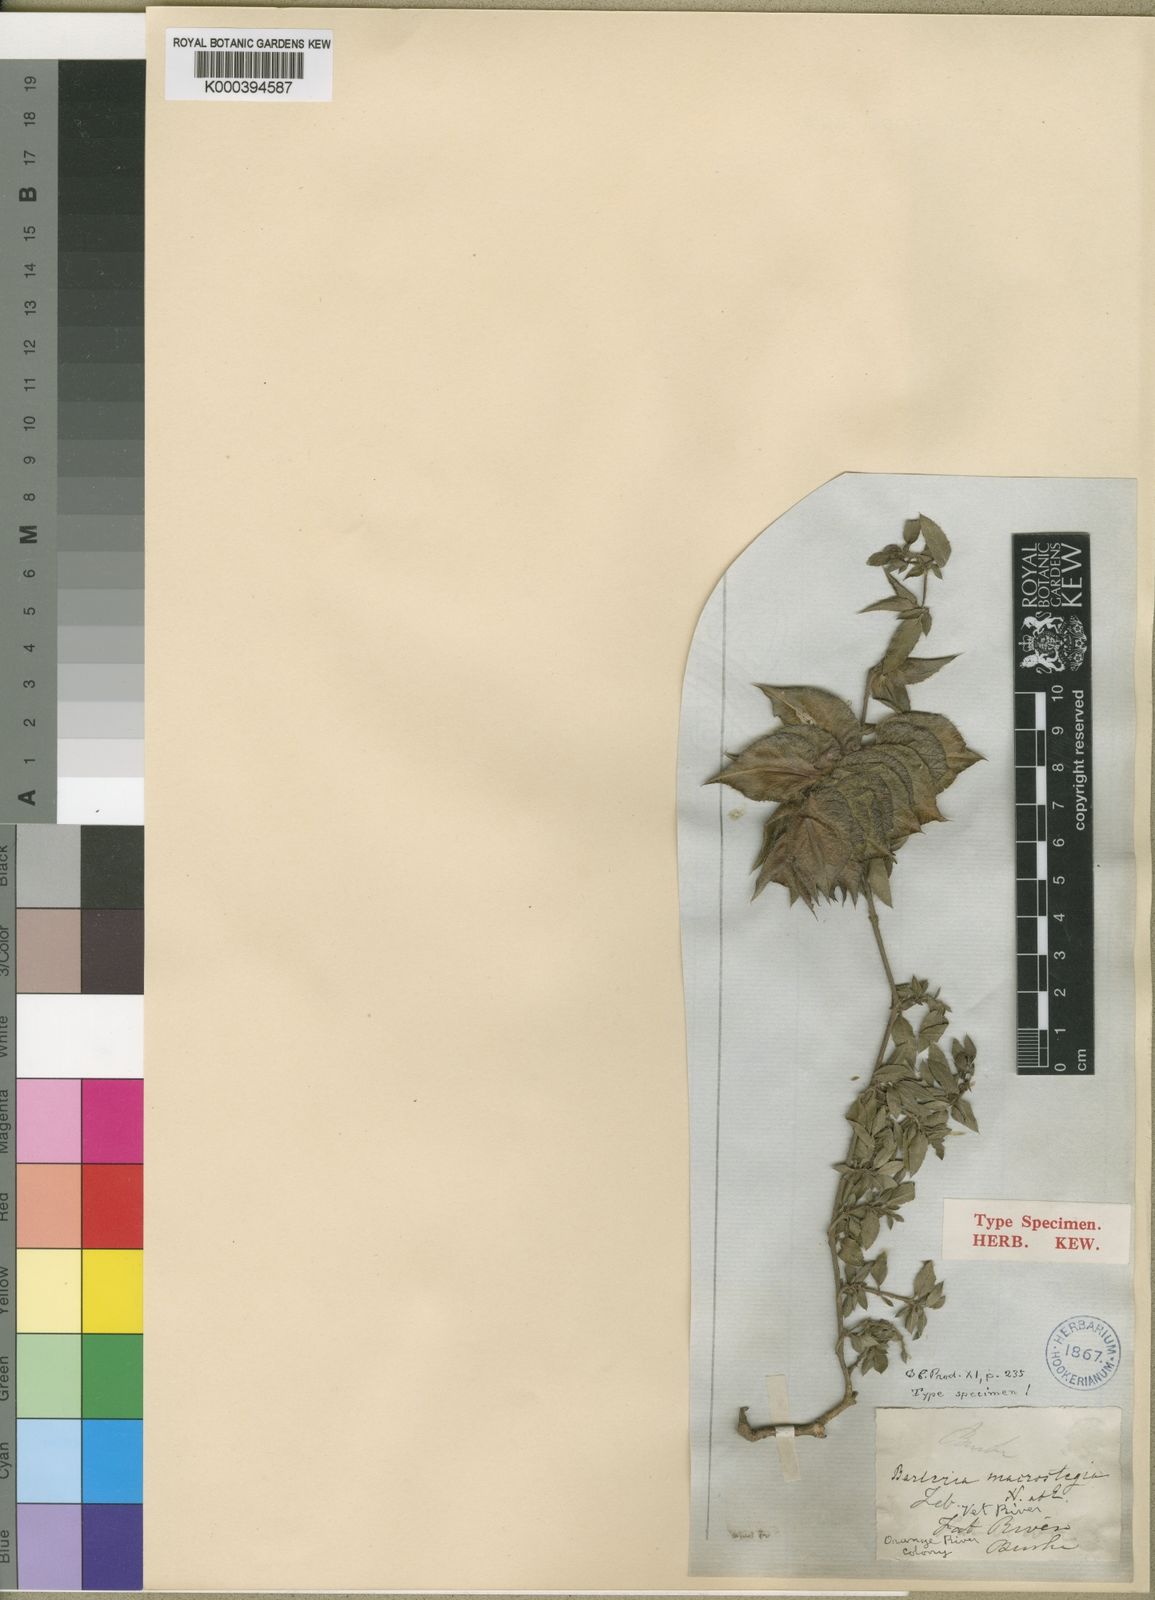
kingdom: Plantae
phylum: Tracheophyta
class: Magnoliopsida
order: Lamiales
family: Acanthaceae
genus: Barleria
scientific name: Barleria macrostegia
